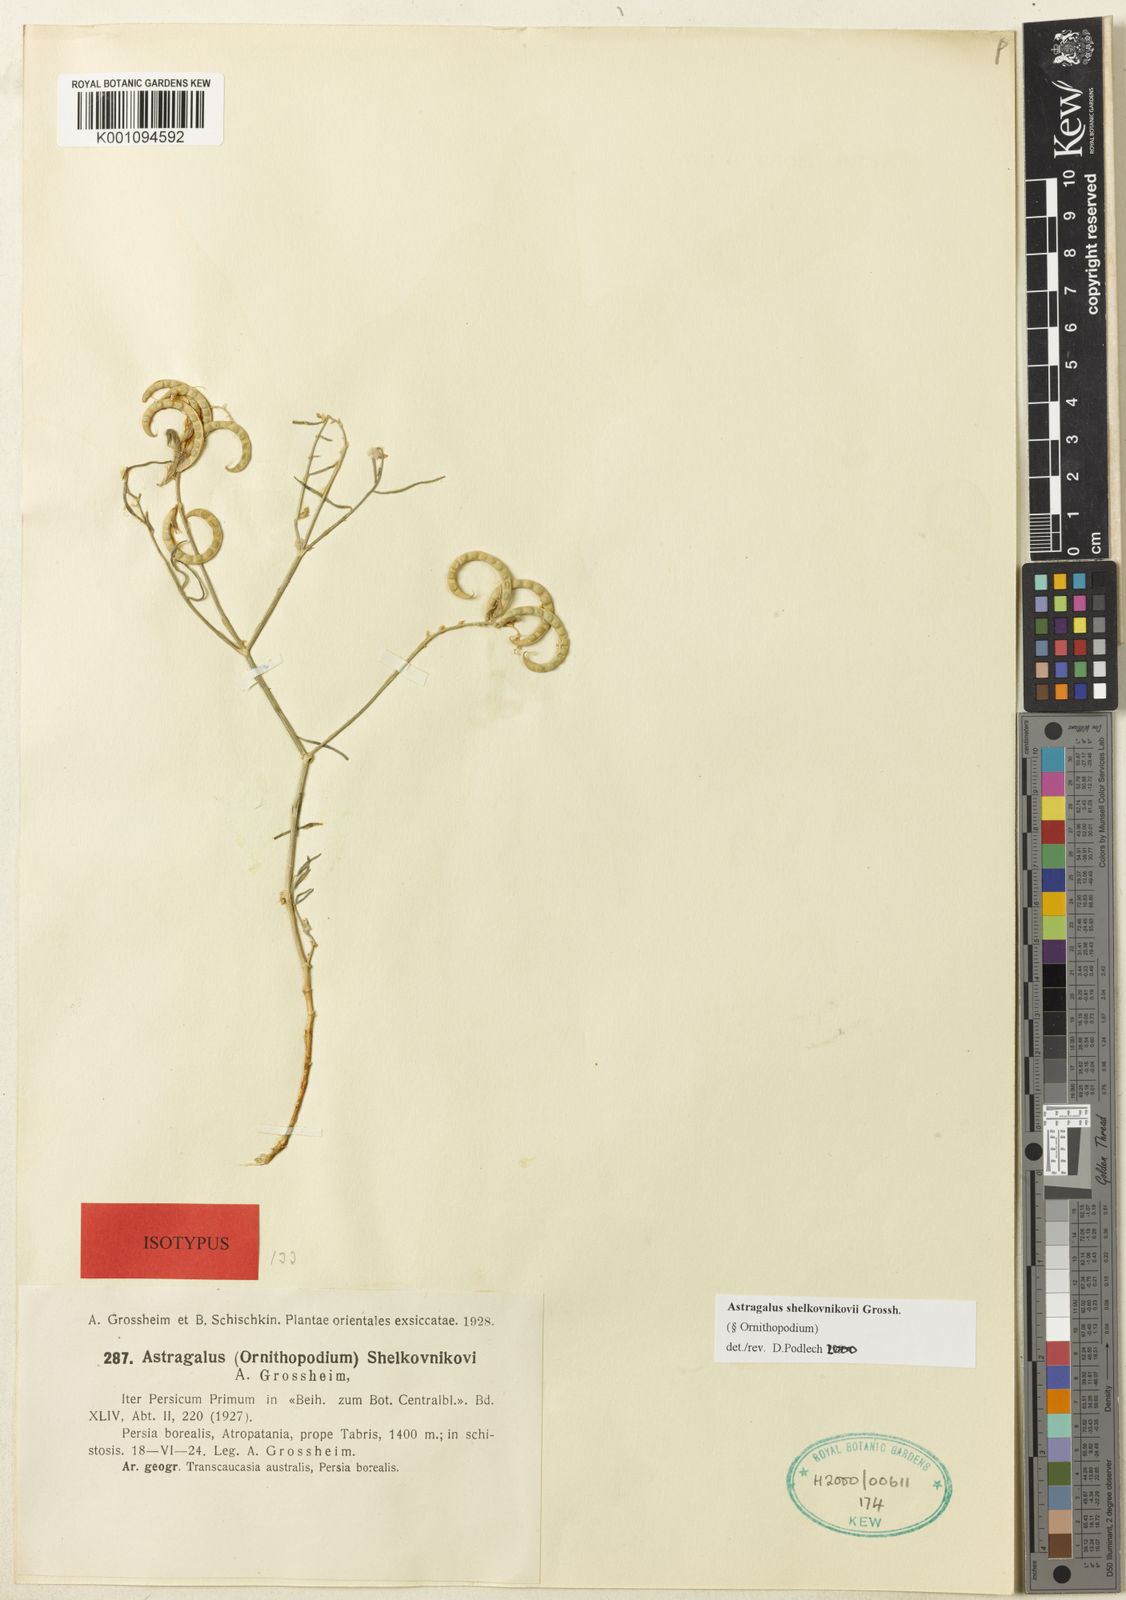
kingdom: Plantae
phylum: Tracheophyta
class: Magnoliopsida
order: Fabales
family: Fabaceae
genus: Astragalus
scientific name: Astragalus
